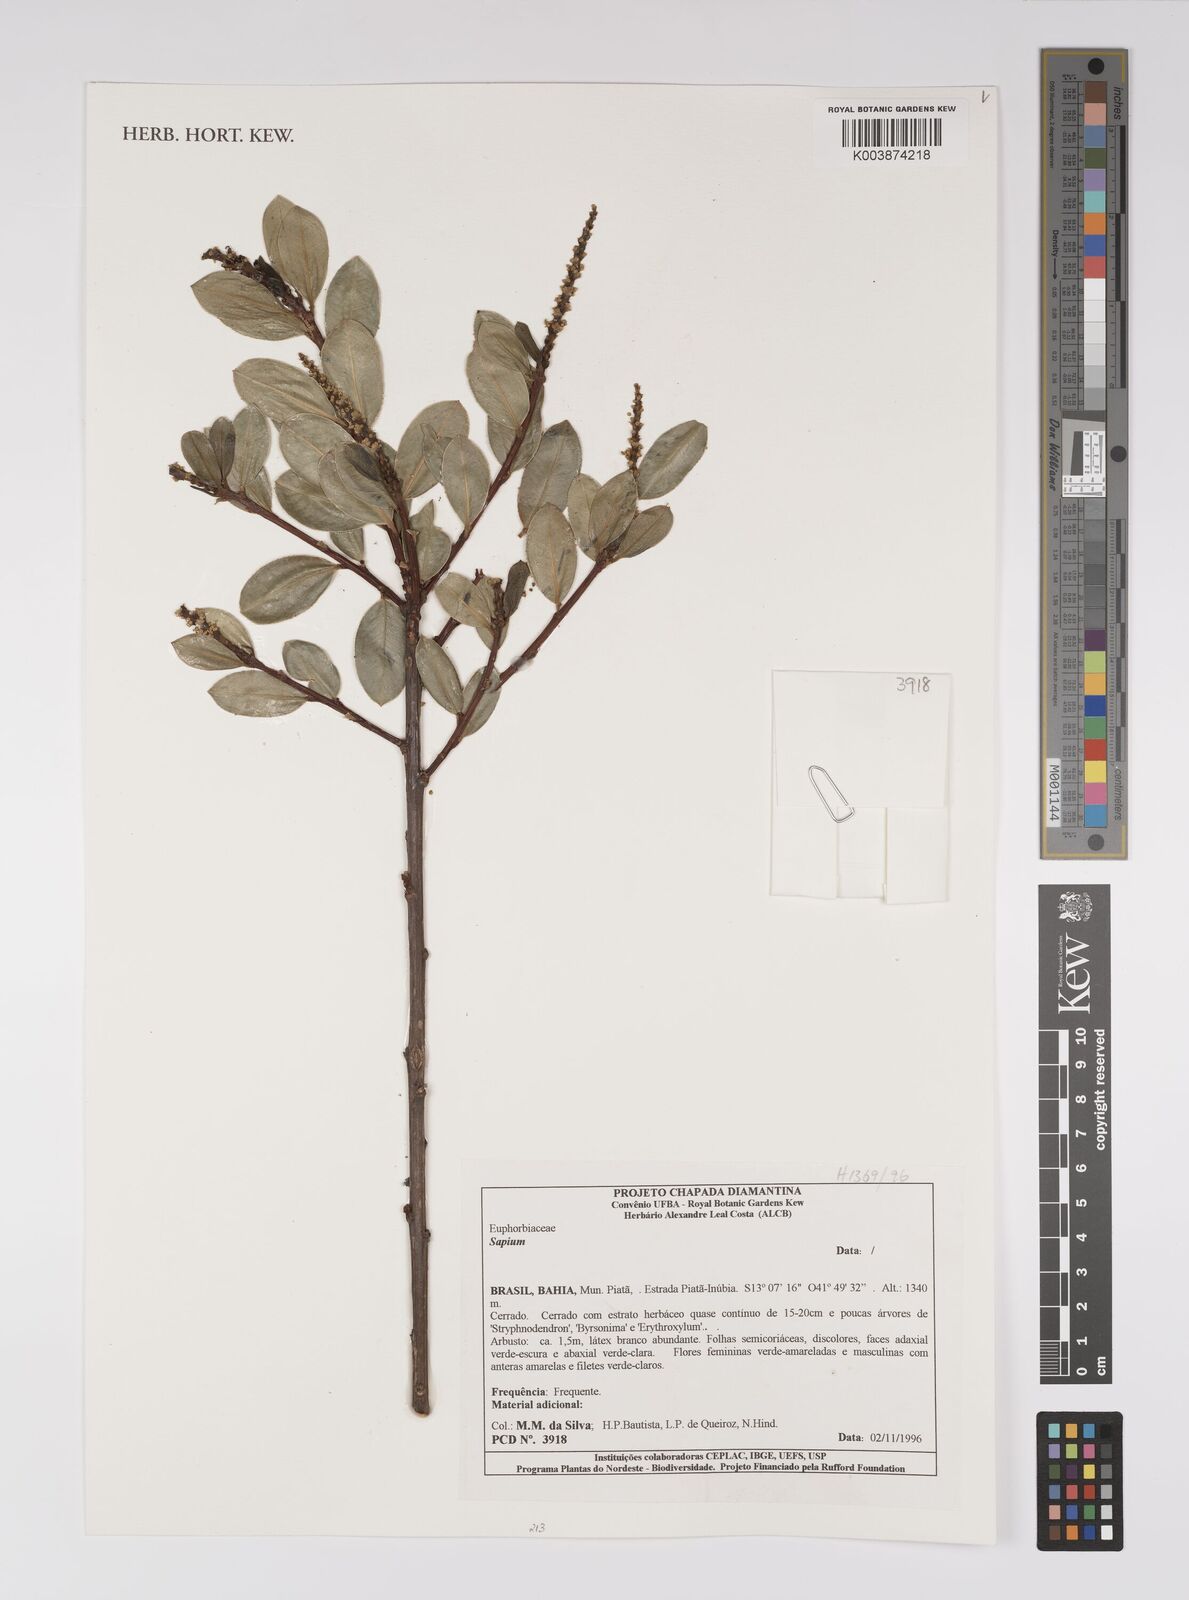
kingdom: Plantae
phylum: Tracheophyta
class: Magnoliopsida
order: Malpighiales
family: Euphorbiaceae
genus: Sapium
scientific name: Sapium
